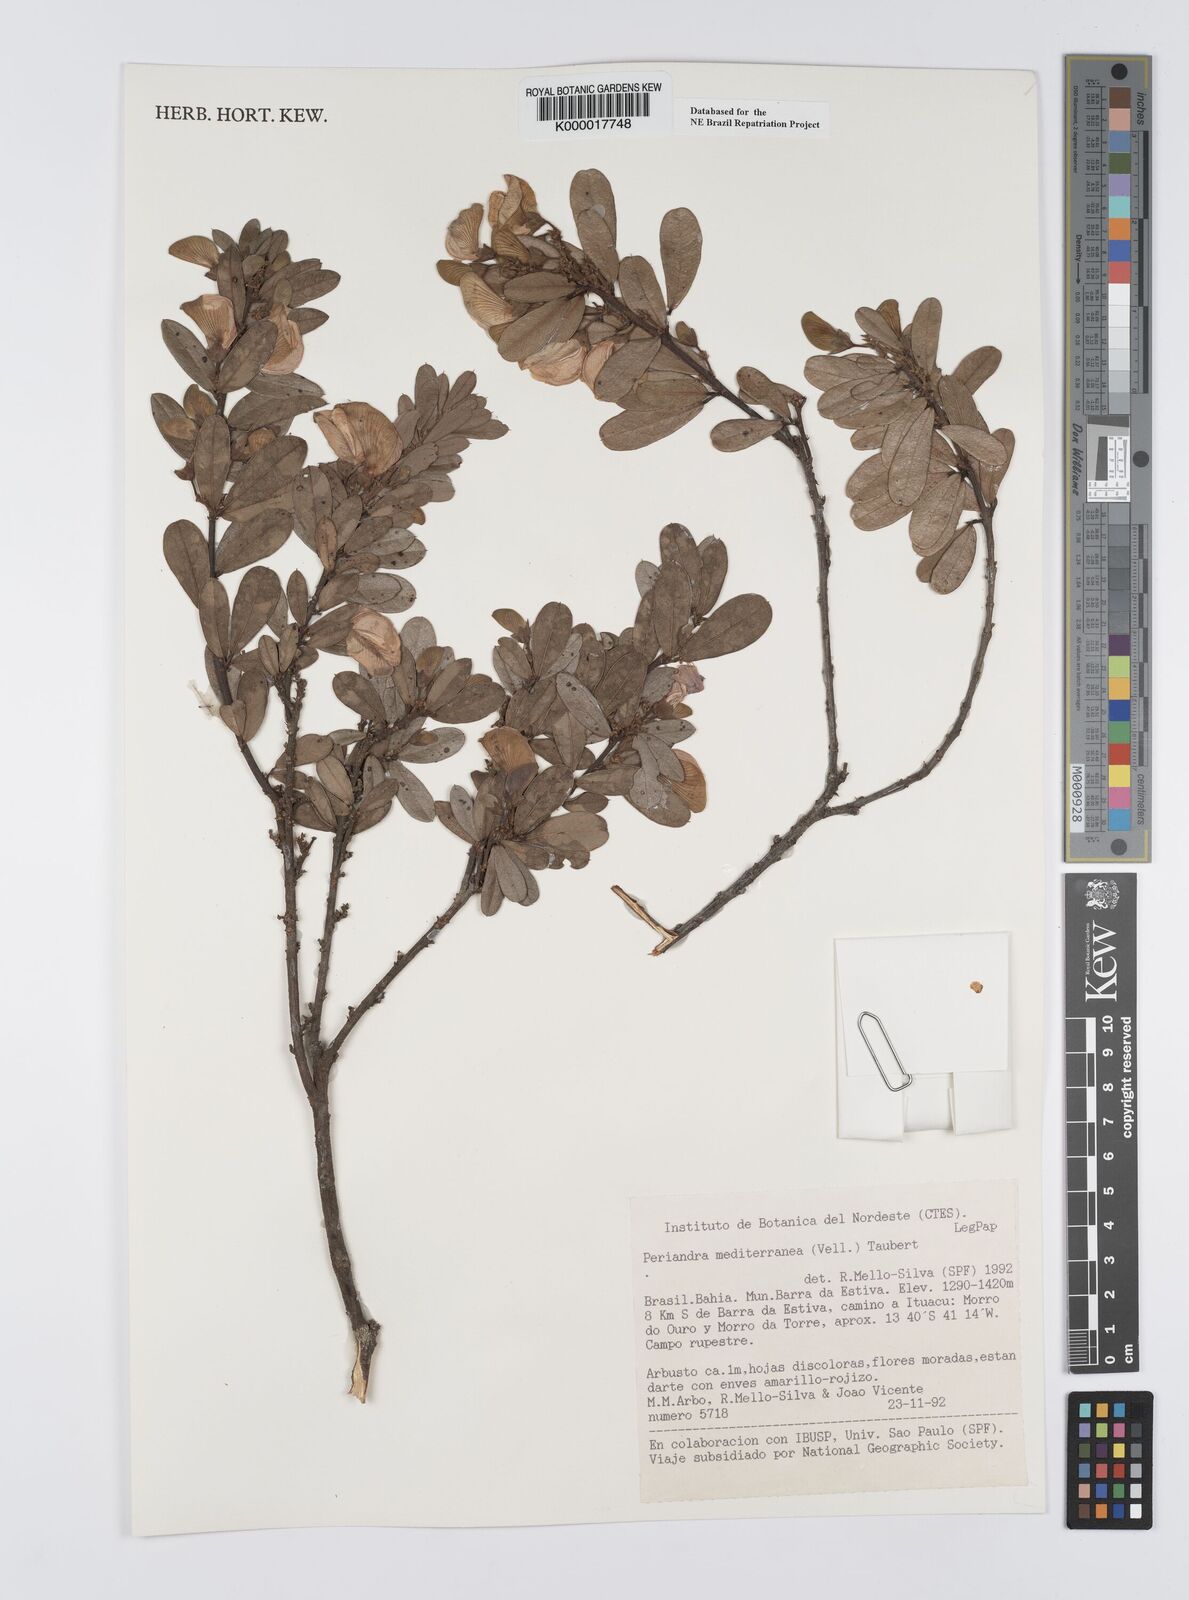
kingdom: Plantae
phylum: Tracheophyta
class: Magnoliopsida
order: Fabales
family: Fabaceae
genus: Periandra
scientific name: Periandra mediterranea
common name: Brazilian licorice
